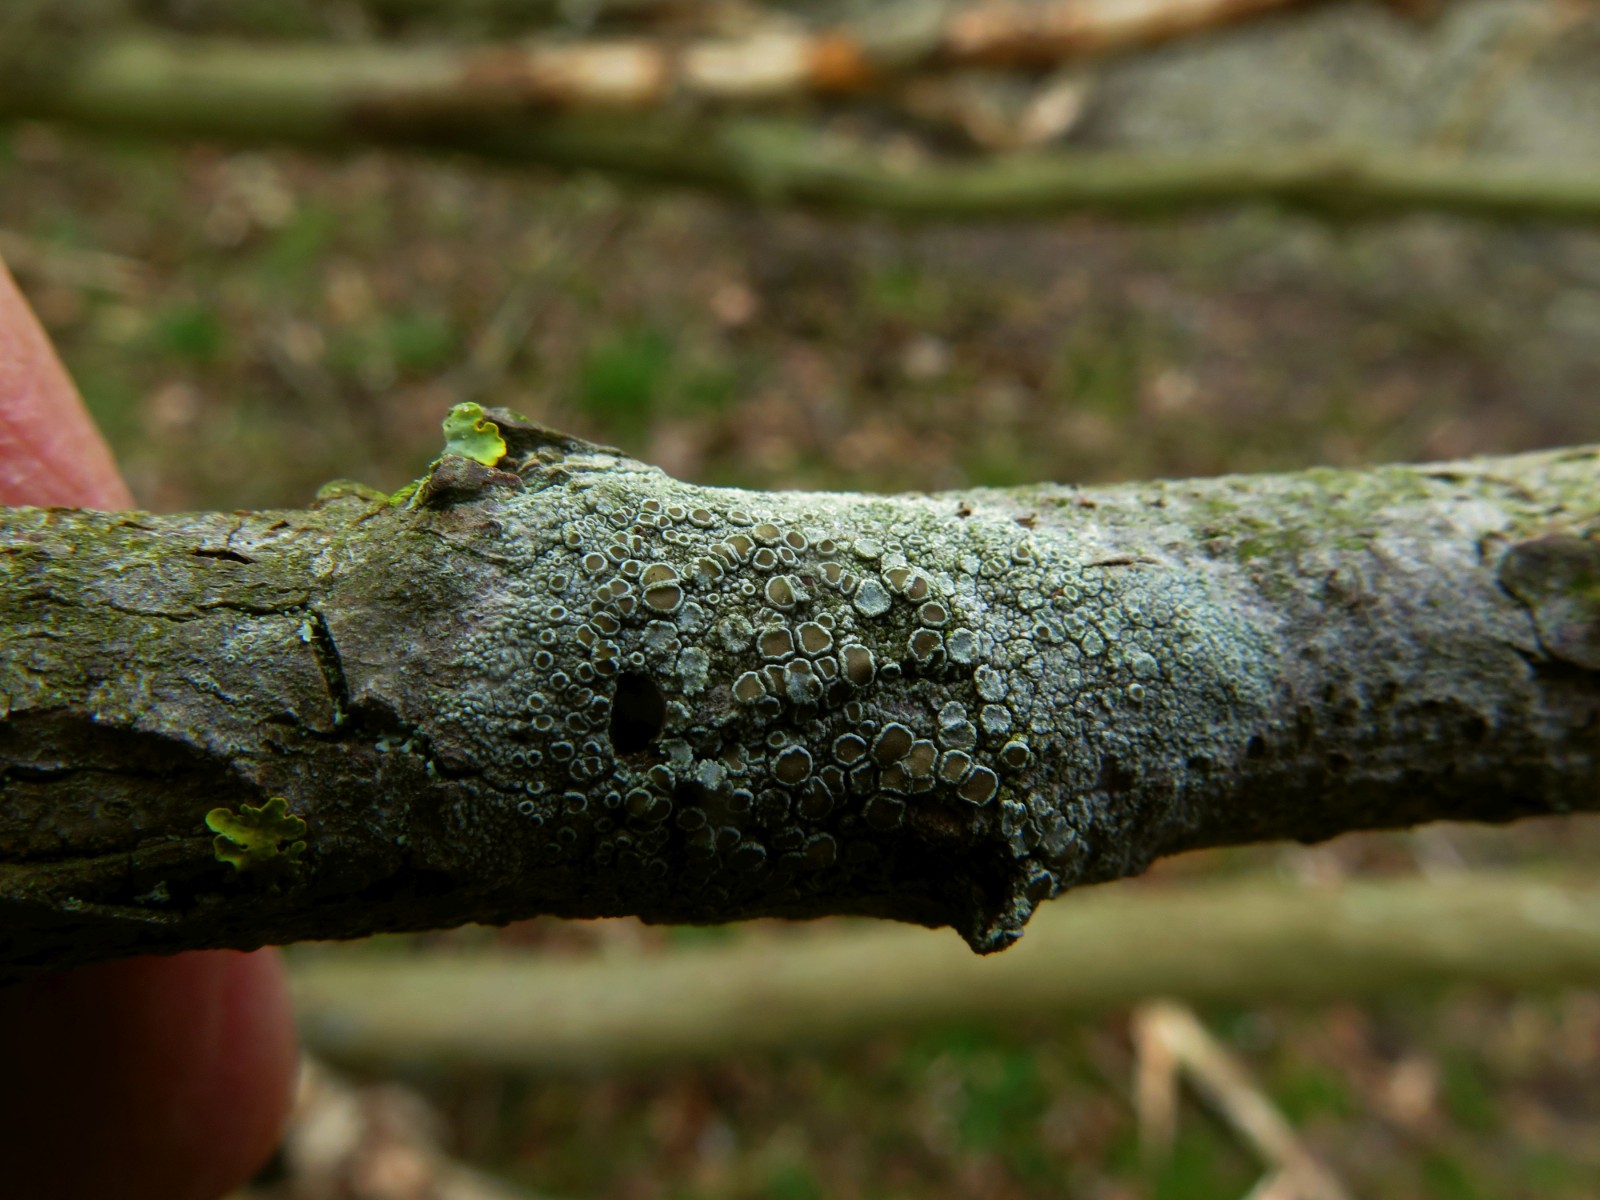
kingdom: Fungi
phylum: Ascomycota
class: Lecanoromycetes
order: Lecanorales
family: Lecanoraceae
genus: Lecanora
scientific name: Lecanora chlarotera
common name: brun kantskivelav
